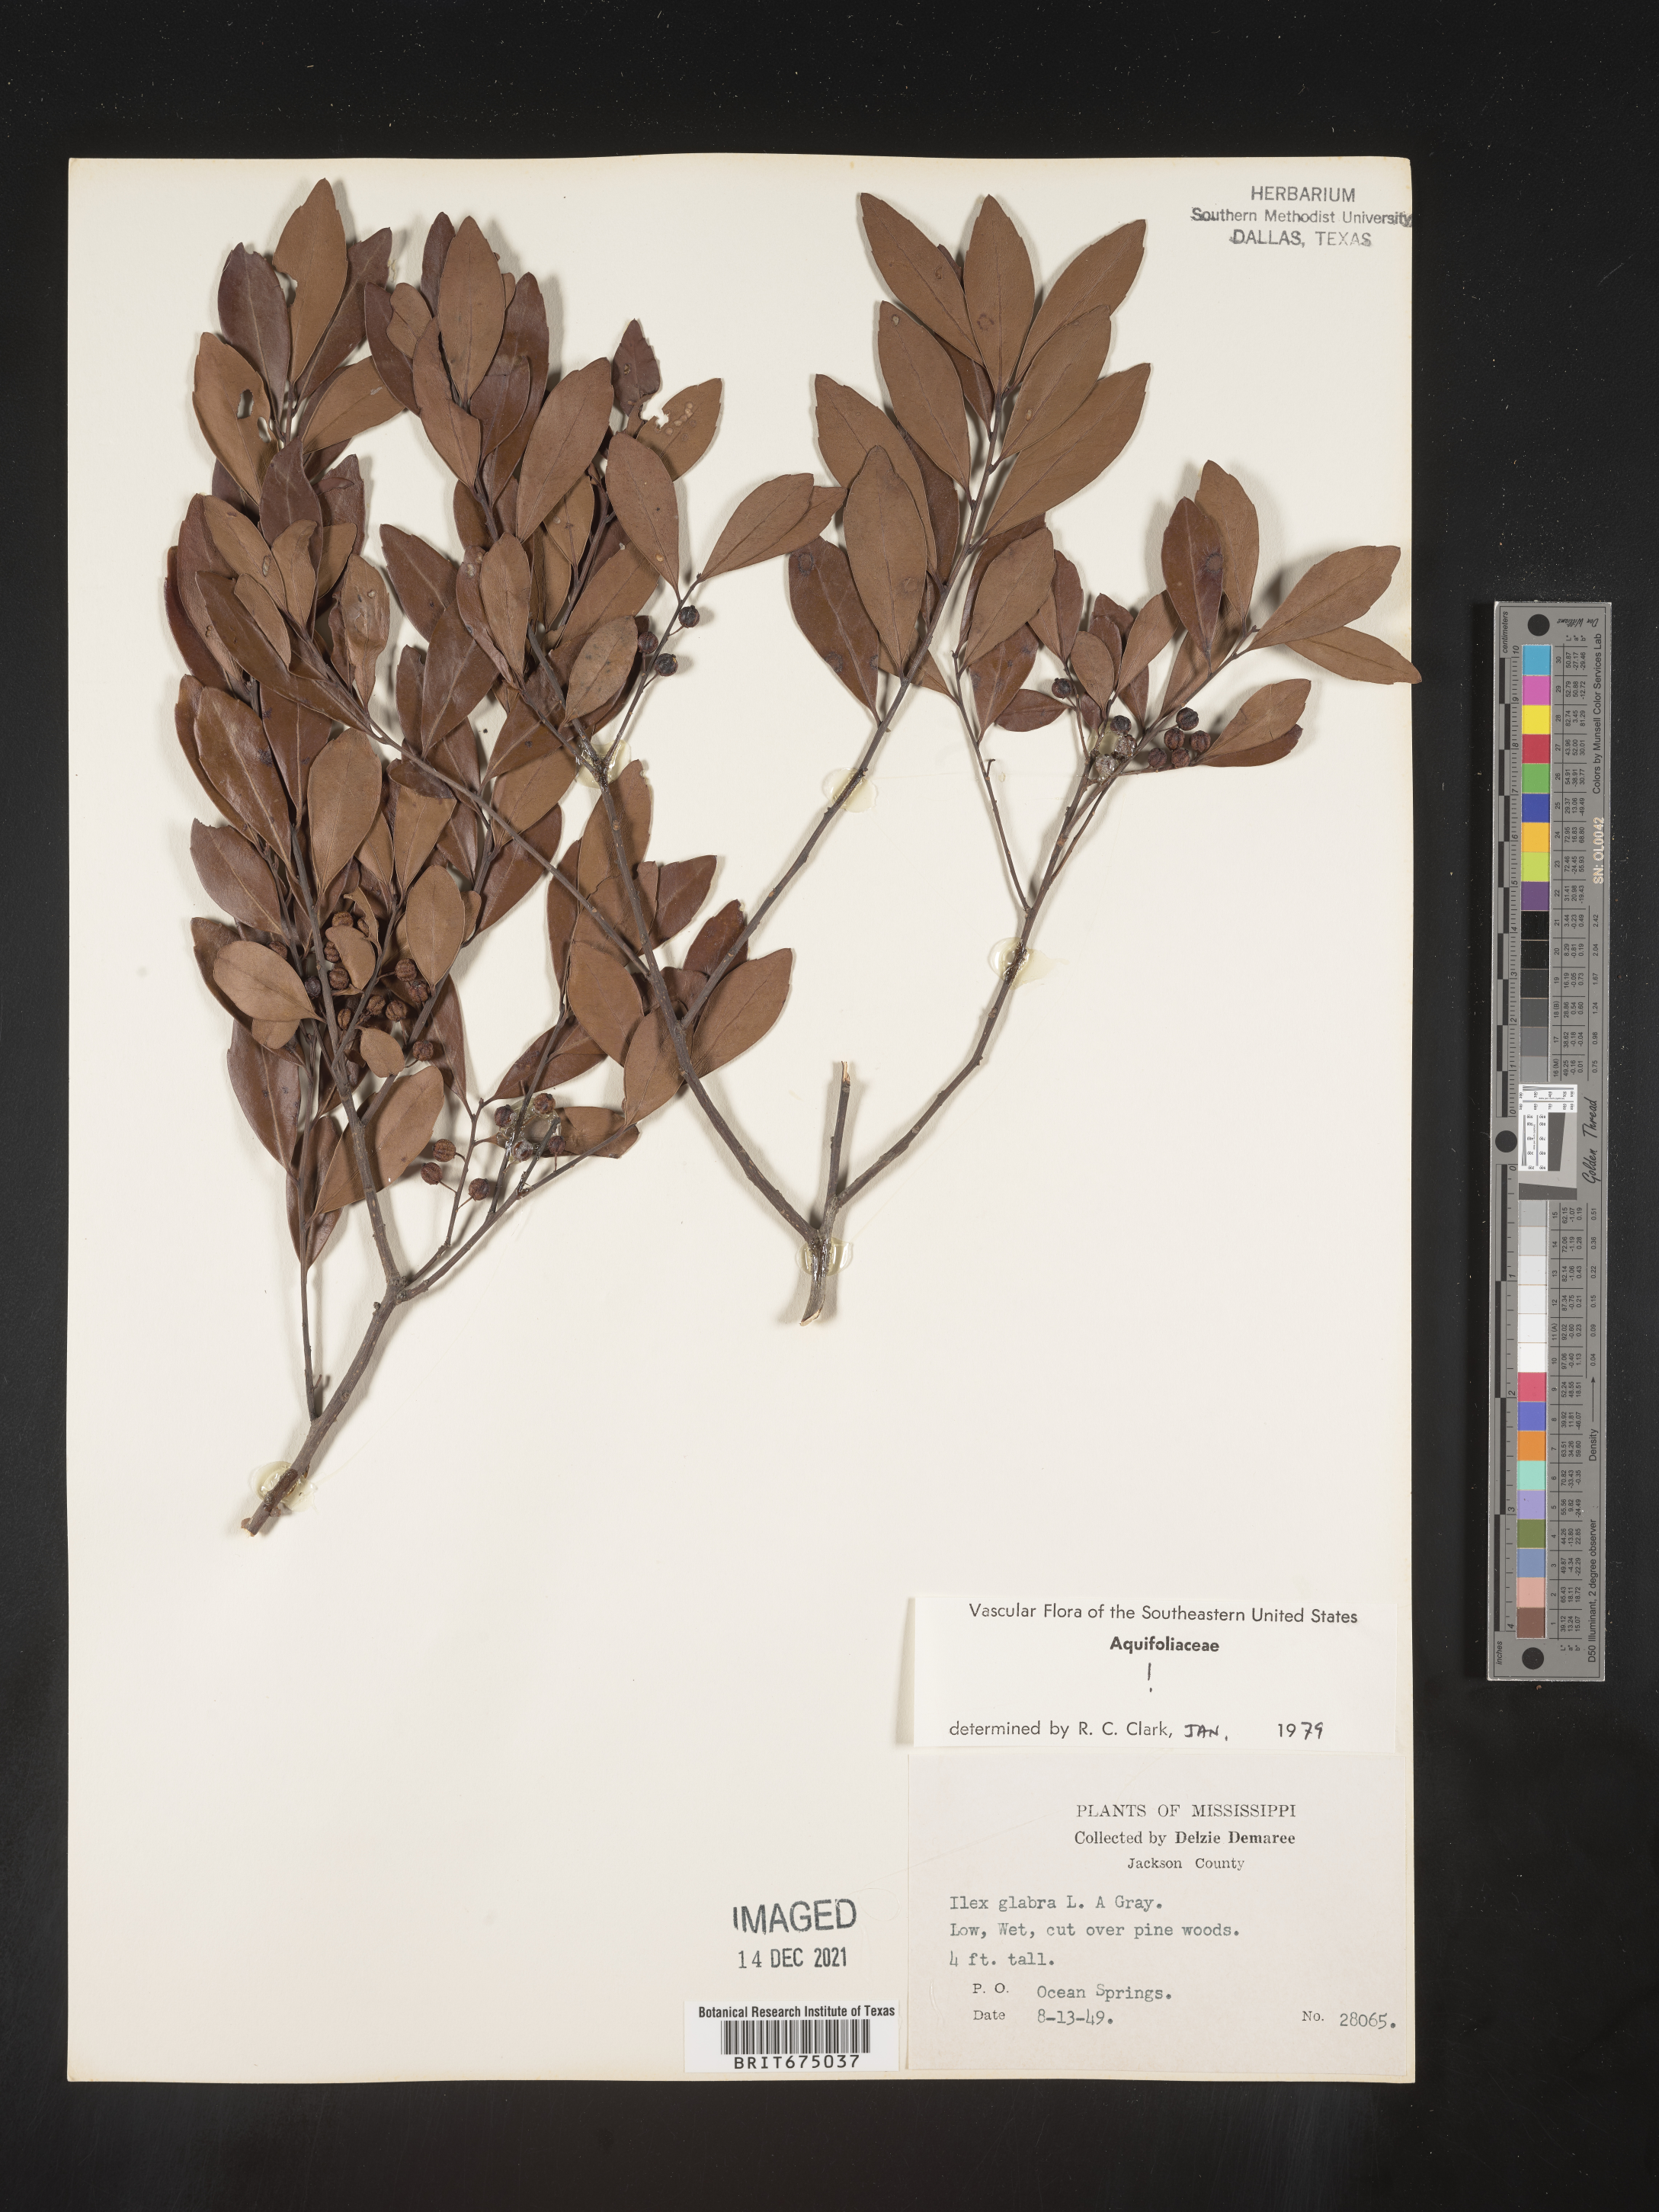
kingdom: Plantae
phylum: Tracheophyta
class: Magnoliopsida
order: Aquifoliales
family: Aquifoliaceae
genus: Ilex
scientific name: Ilex glabra
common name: Bitter gallberry
